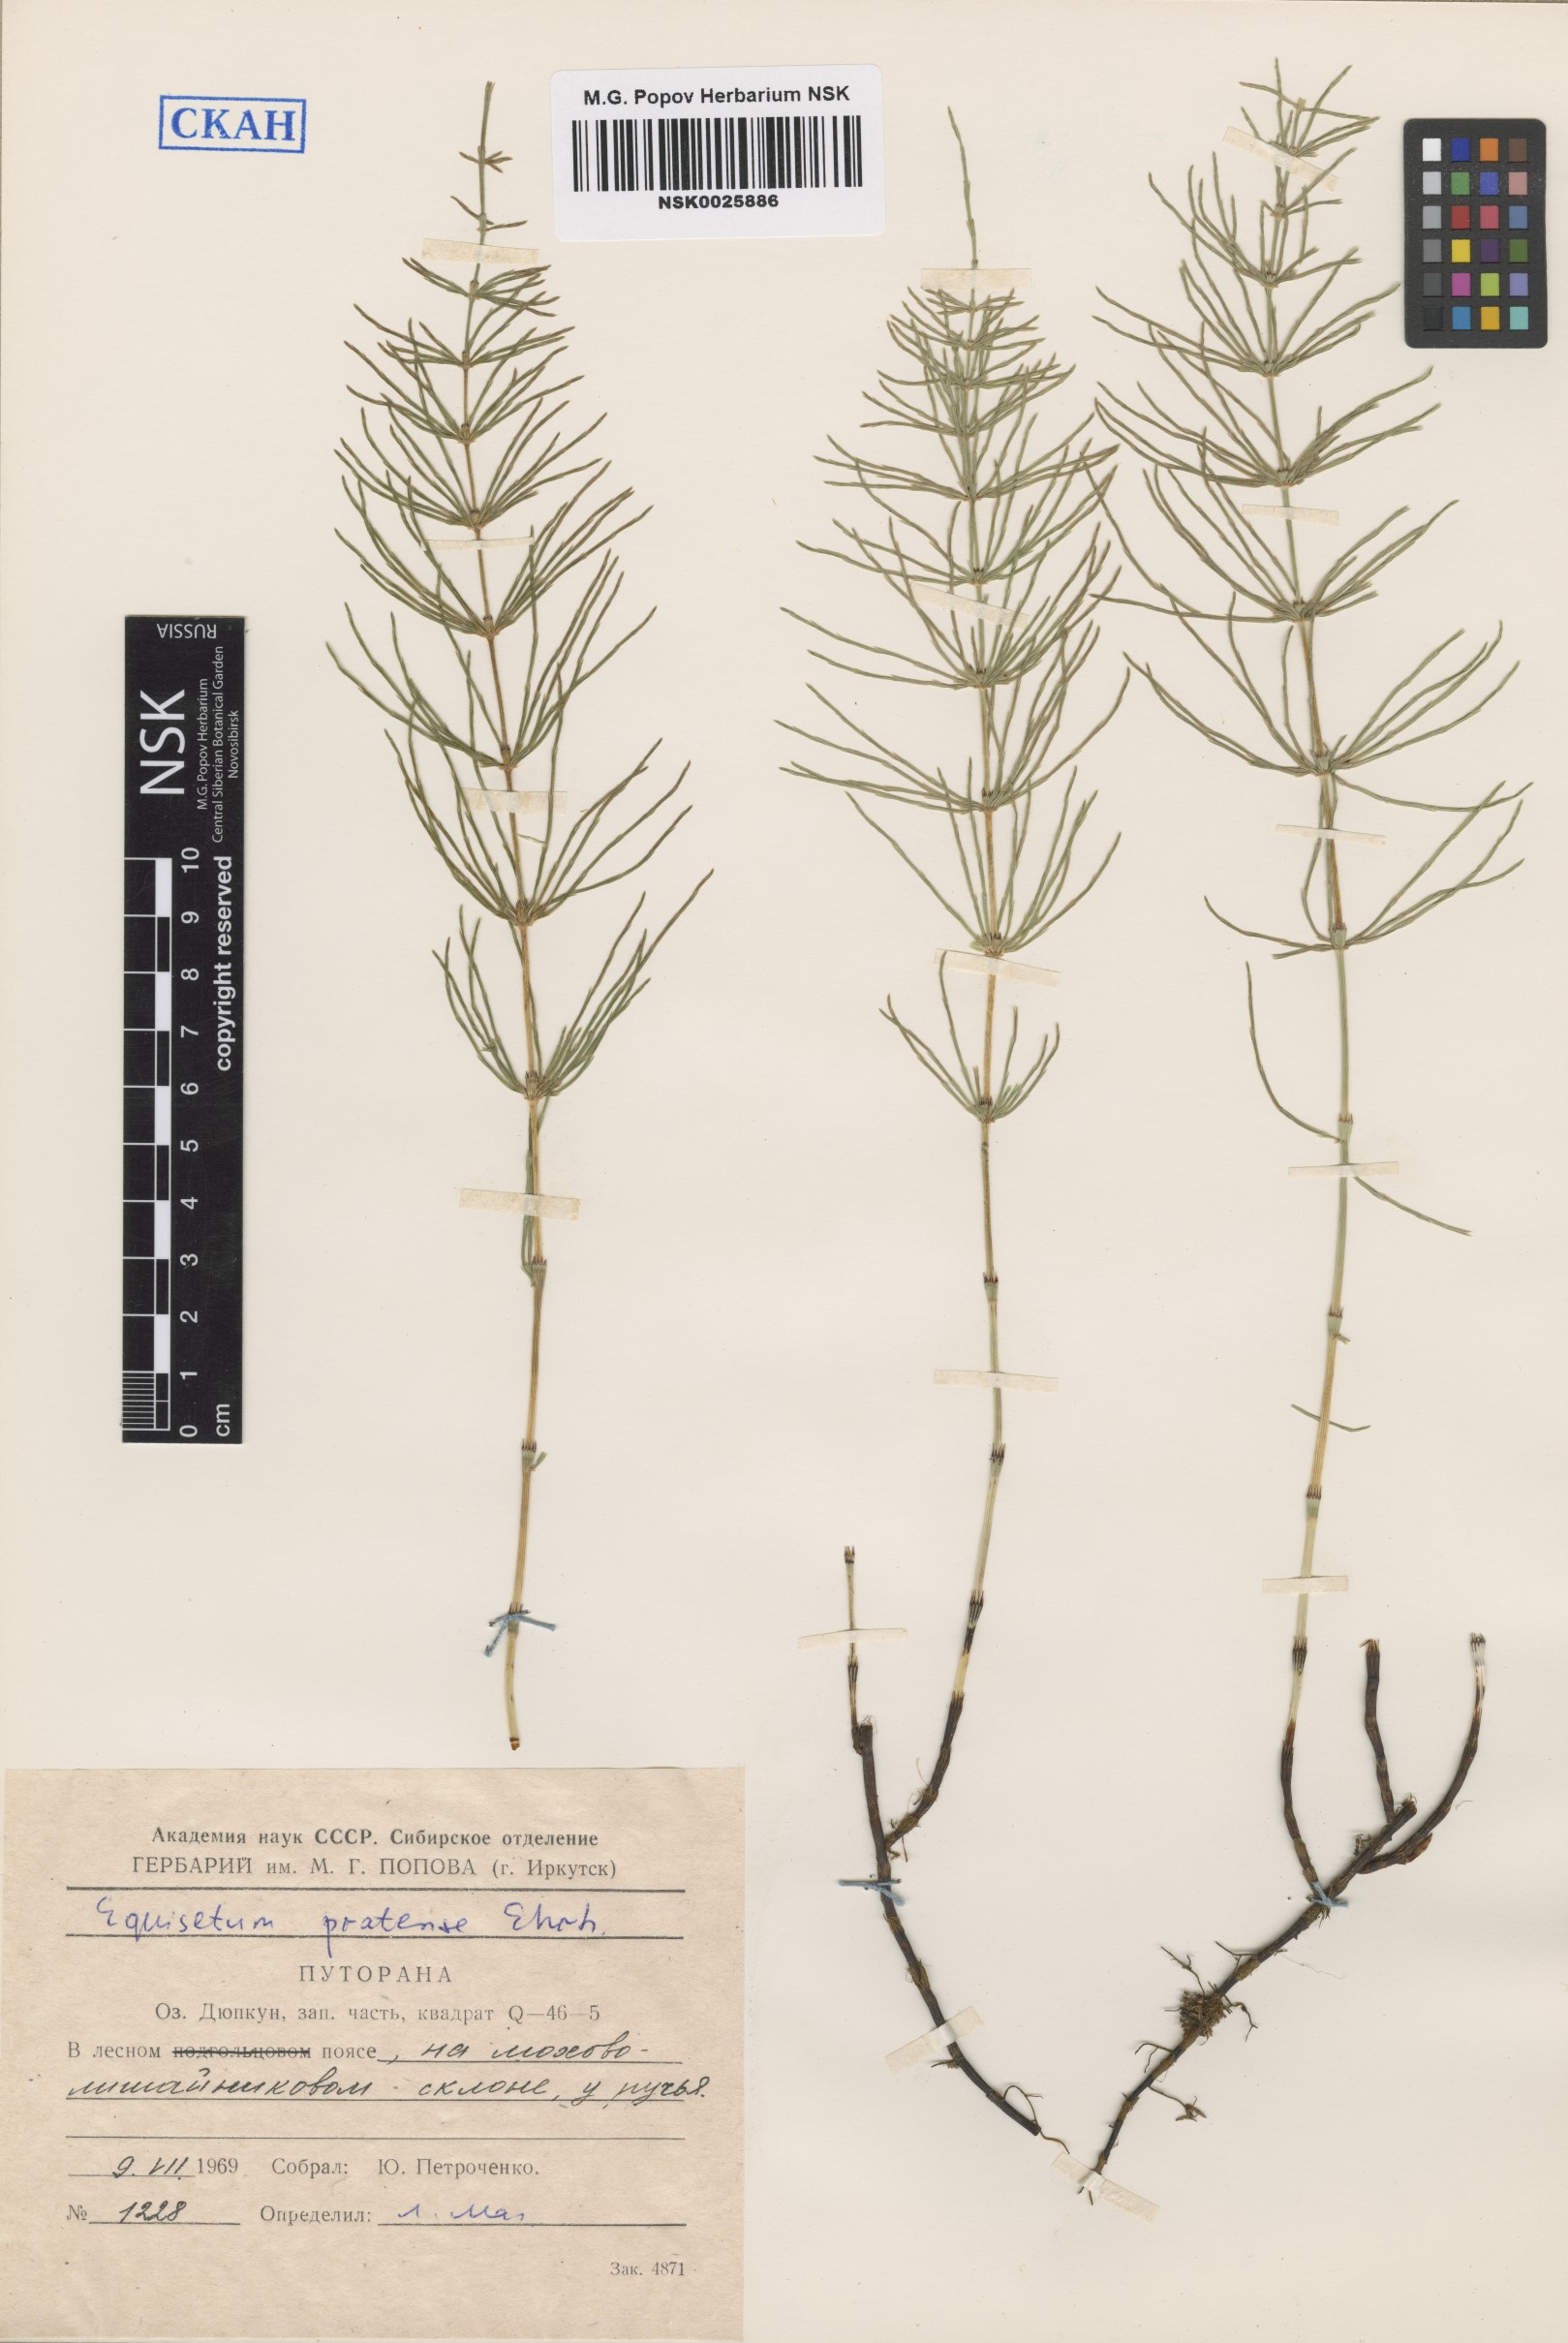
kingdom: Plantae
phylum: Tracheophyta
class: Polypodiopsida
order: Equisetales
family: Equisetaceae
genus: Equisetum
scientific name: Equisetum pratense
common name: Meadow horsetail
